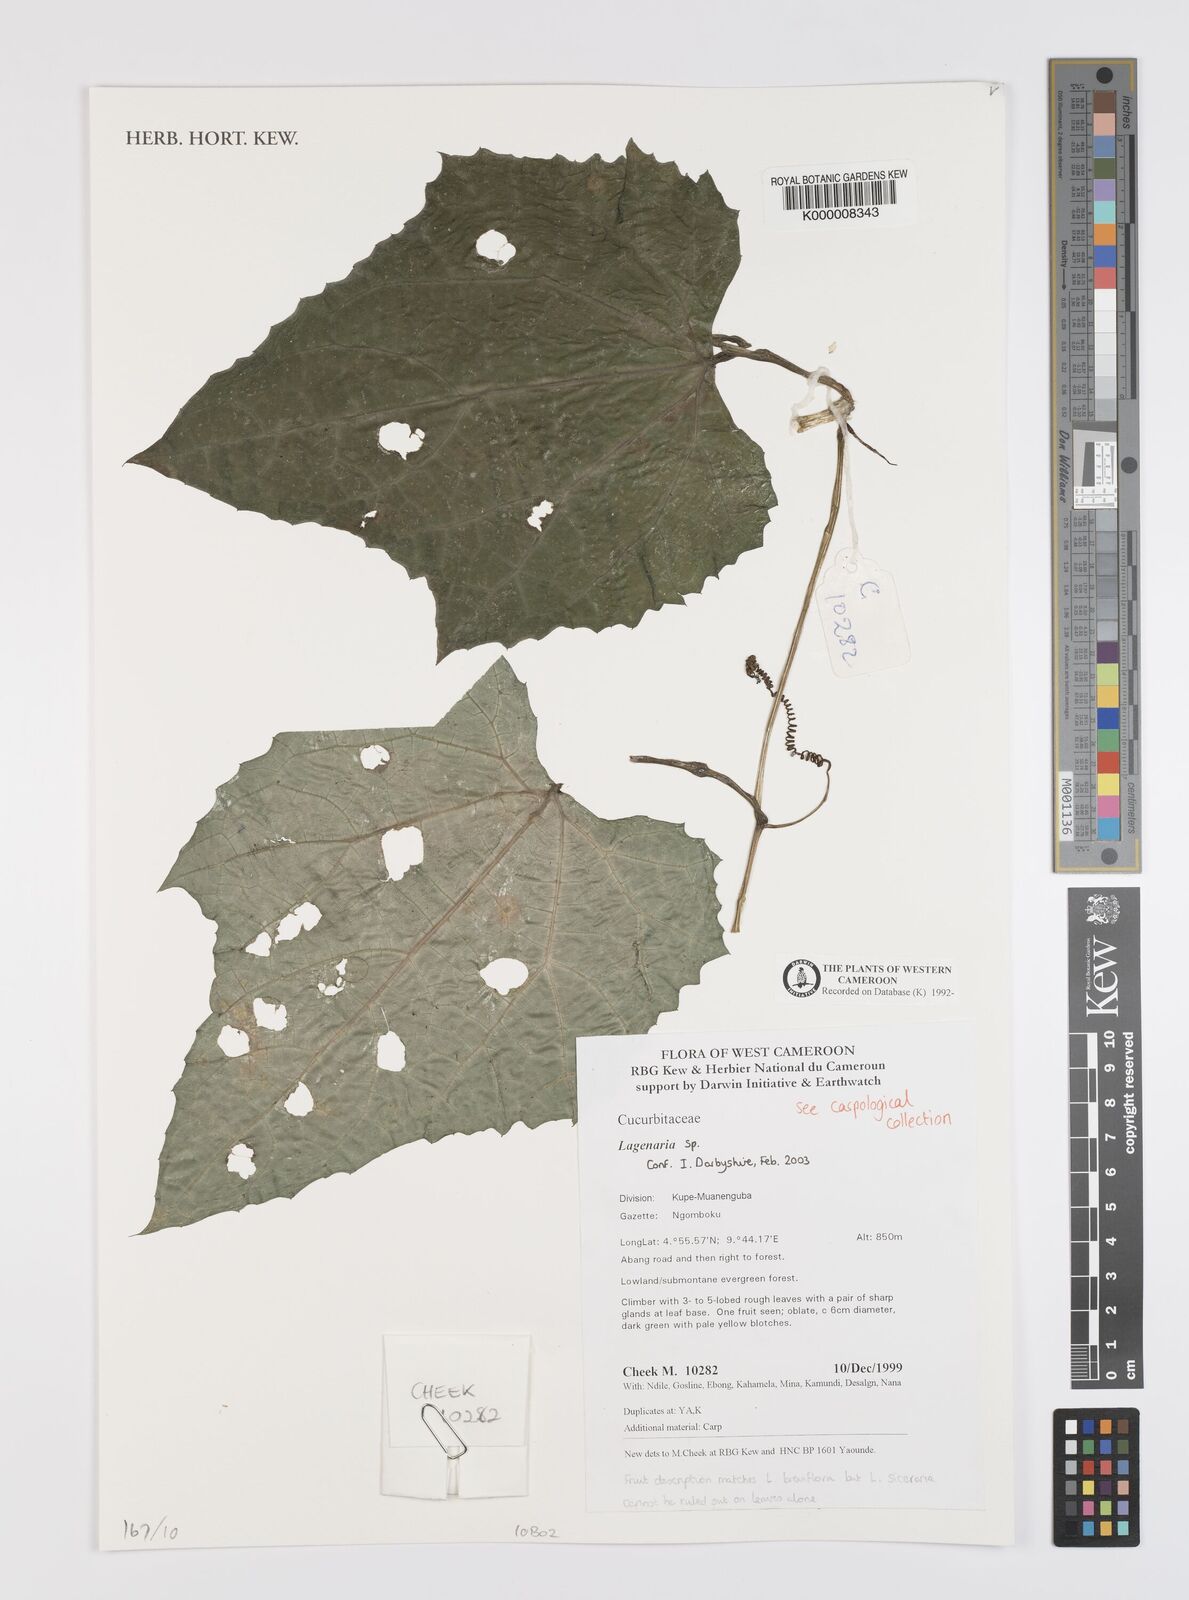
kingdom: Plantae
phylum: Tracheophyta
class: Magnoliopsida
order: Cucurbitales
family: Cucurbitaceae
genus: Lagenaria
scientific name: Lagenaria
